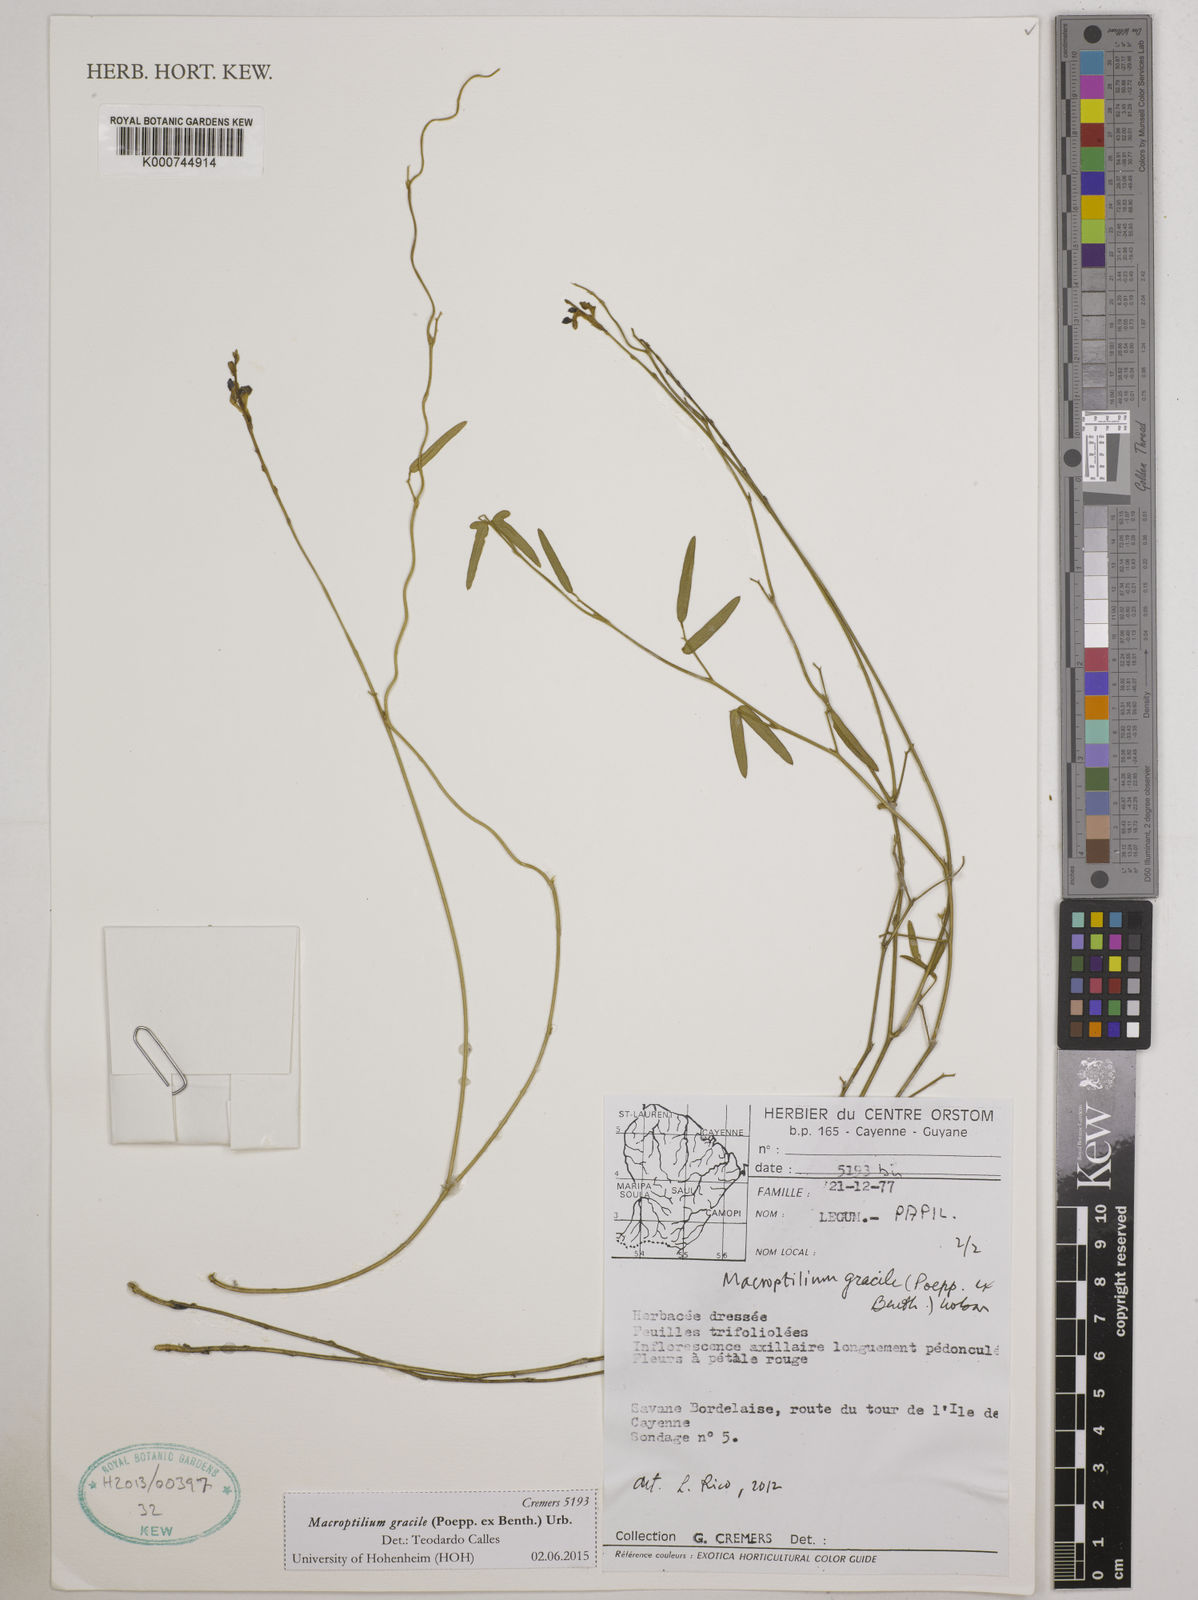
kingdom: Plantae
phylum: Tracheophyta
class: Magnoliopsida
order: Fabales
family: Fabaceae
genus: Macroptilium
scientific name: Macroptilium gracile
